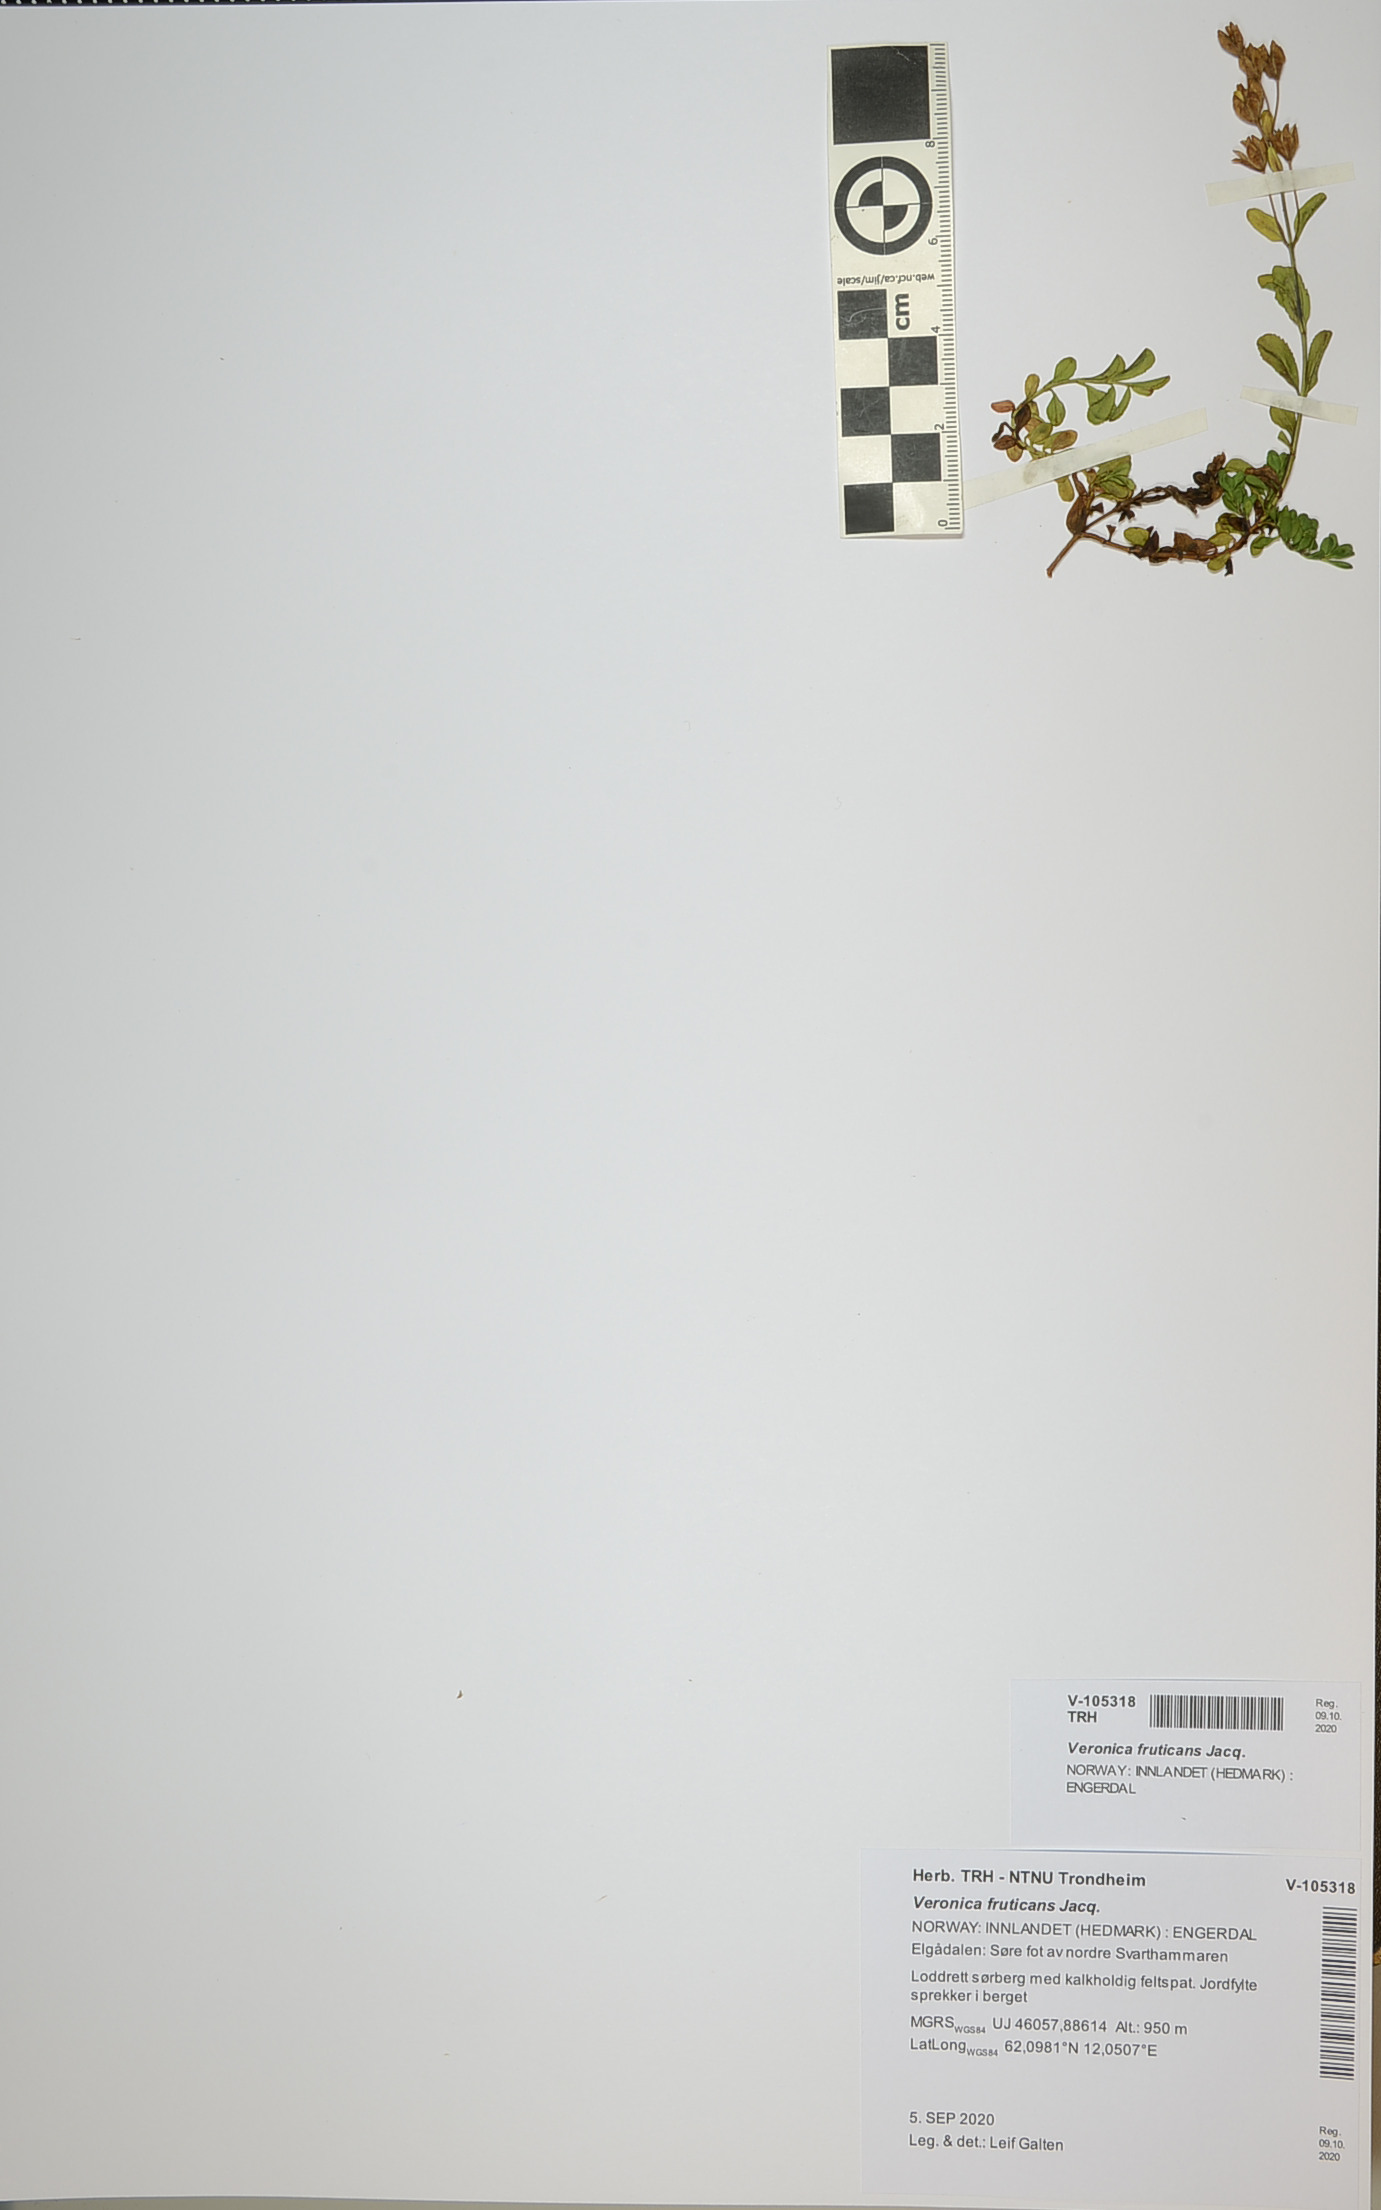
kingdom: Plantae
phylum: Tracheophyta
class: Magnoliopsida
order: Lamiales
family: Plantaginaceae
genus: Veronica
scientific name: Veronica fruticans
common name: Rock speedwell
